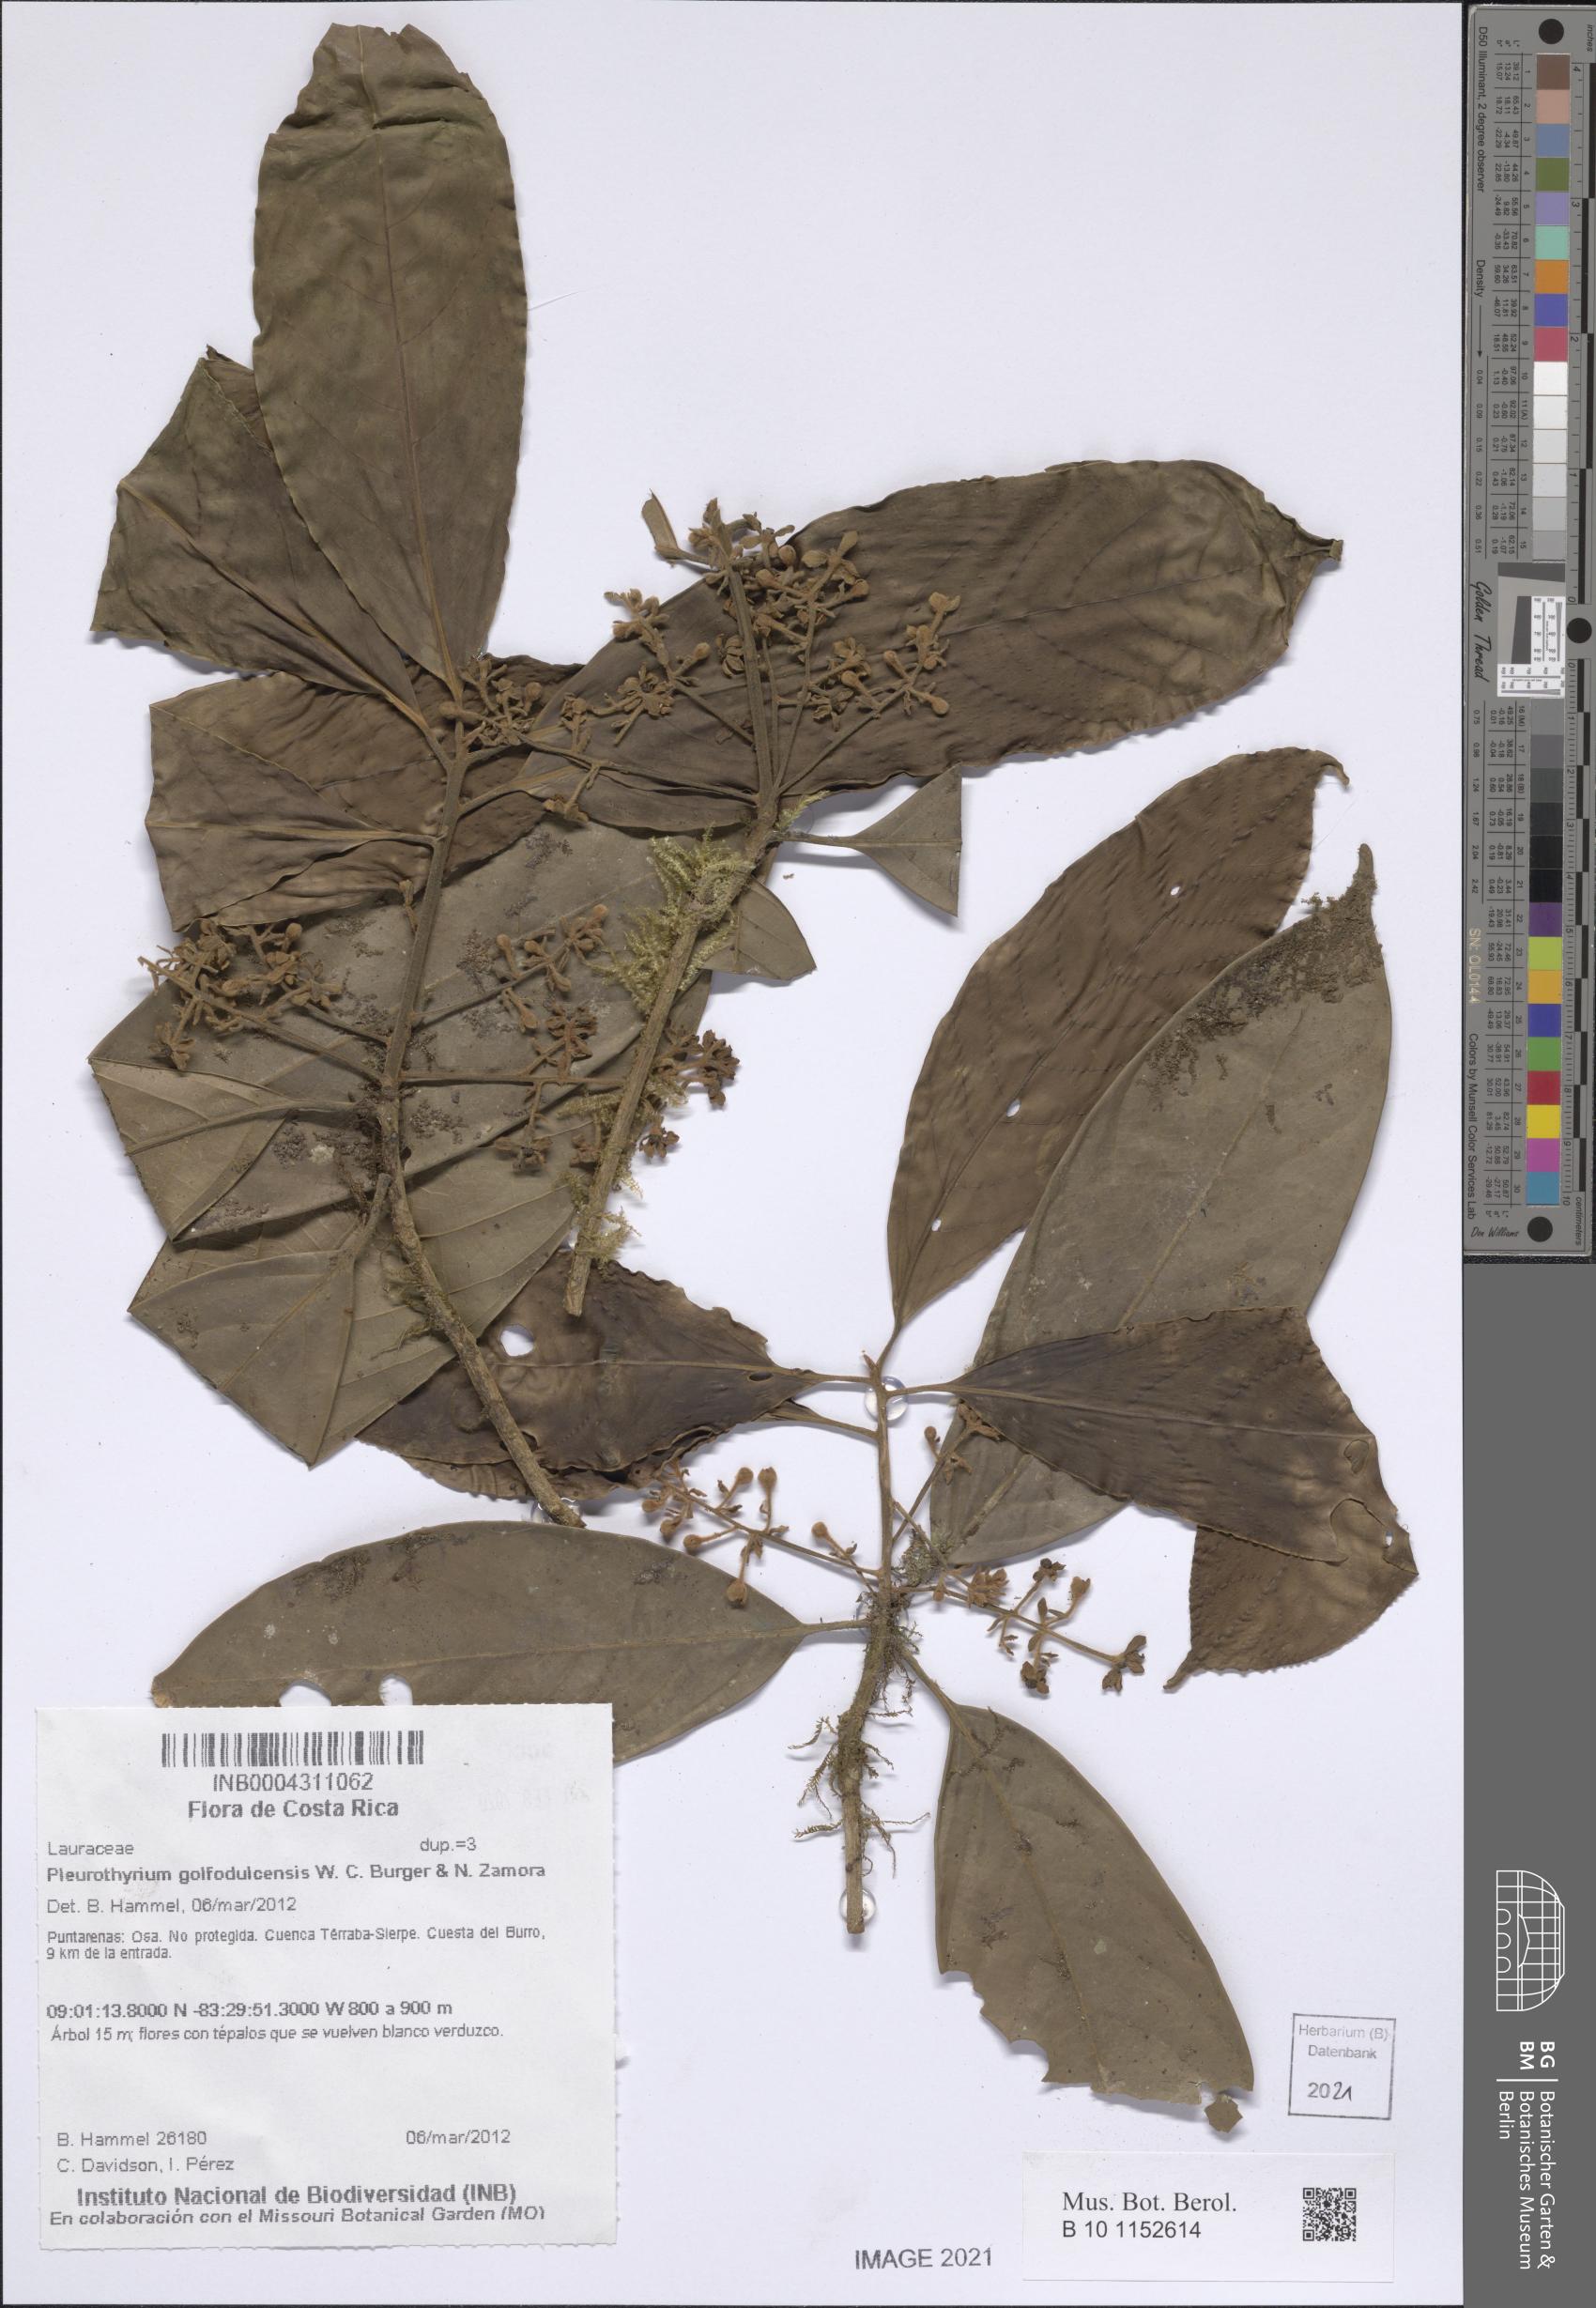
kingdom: Plantae
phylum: Tracheophyta
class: Magnoliopsida
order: Laurales
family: Lauraceae
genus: Pleurothyrium
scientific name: Pleurothyrium golfodulcense
